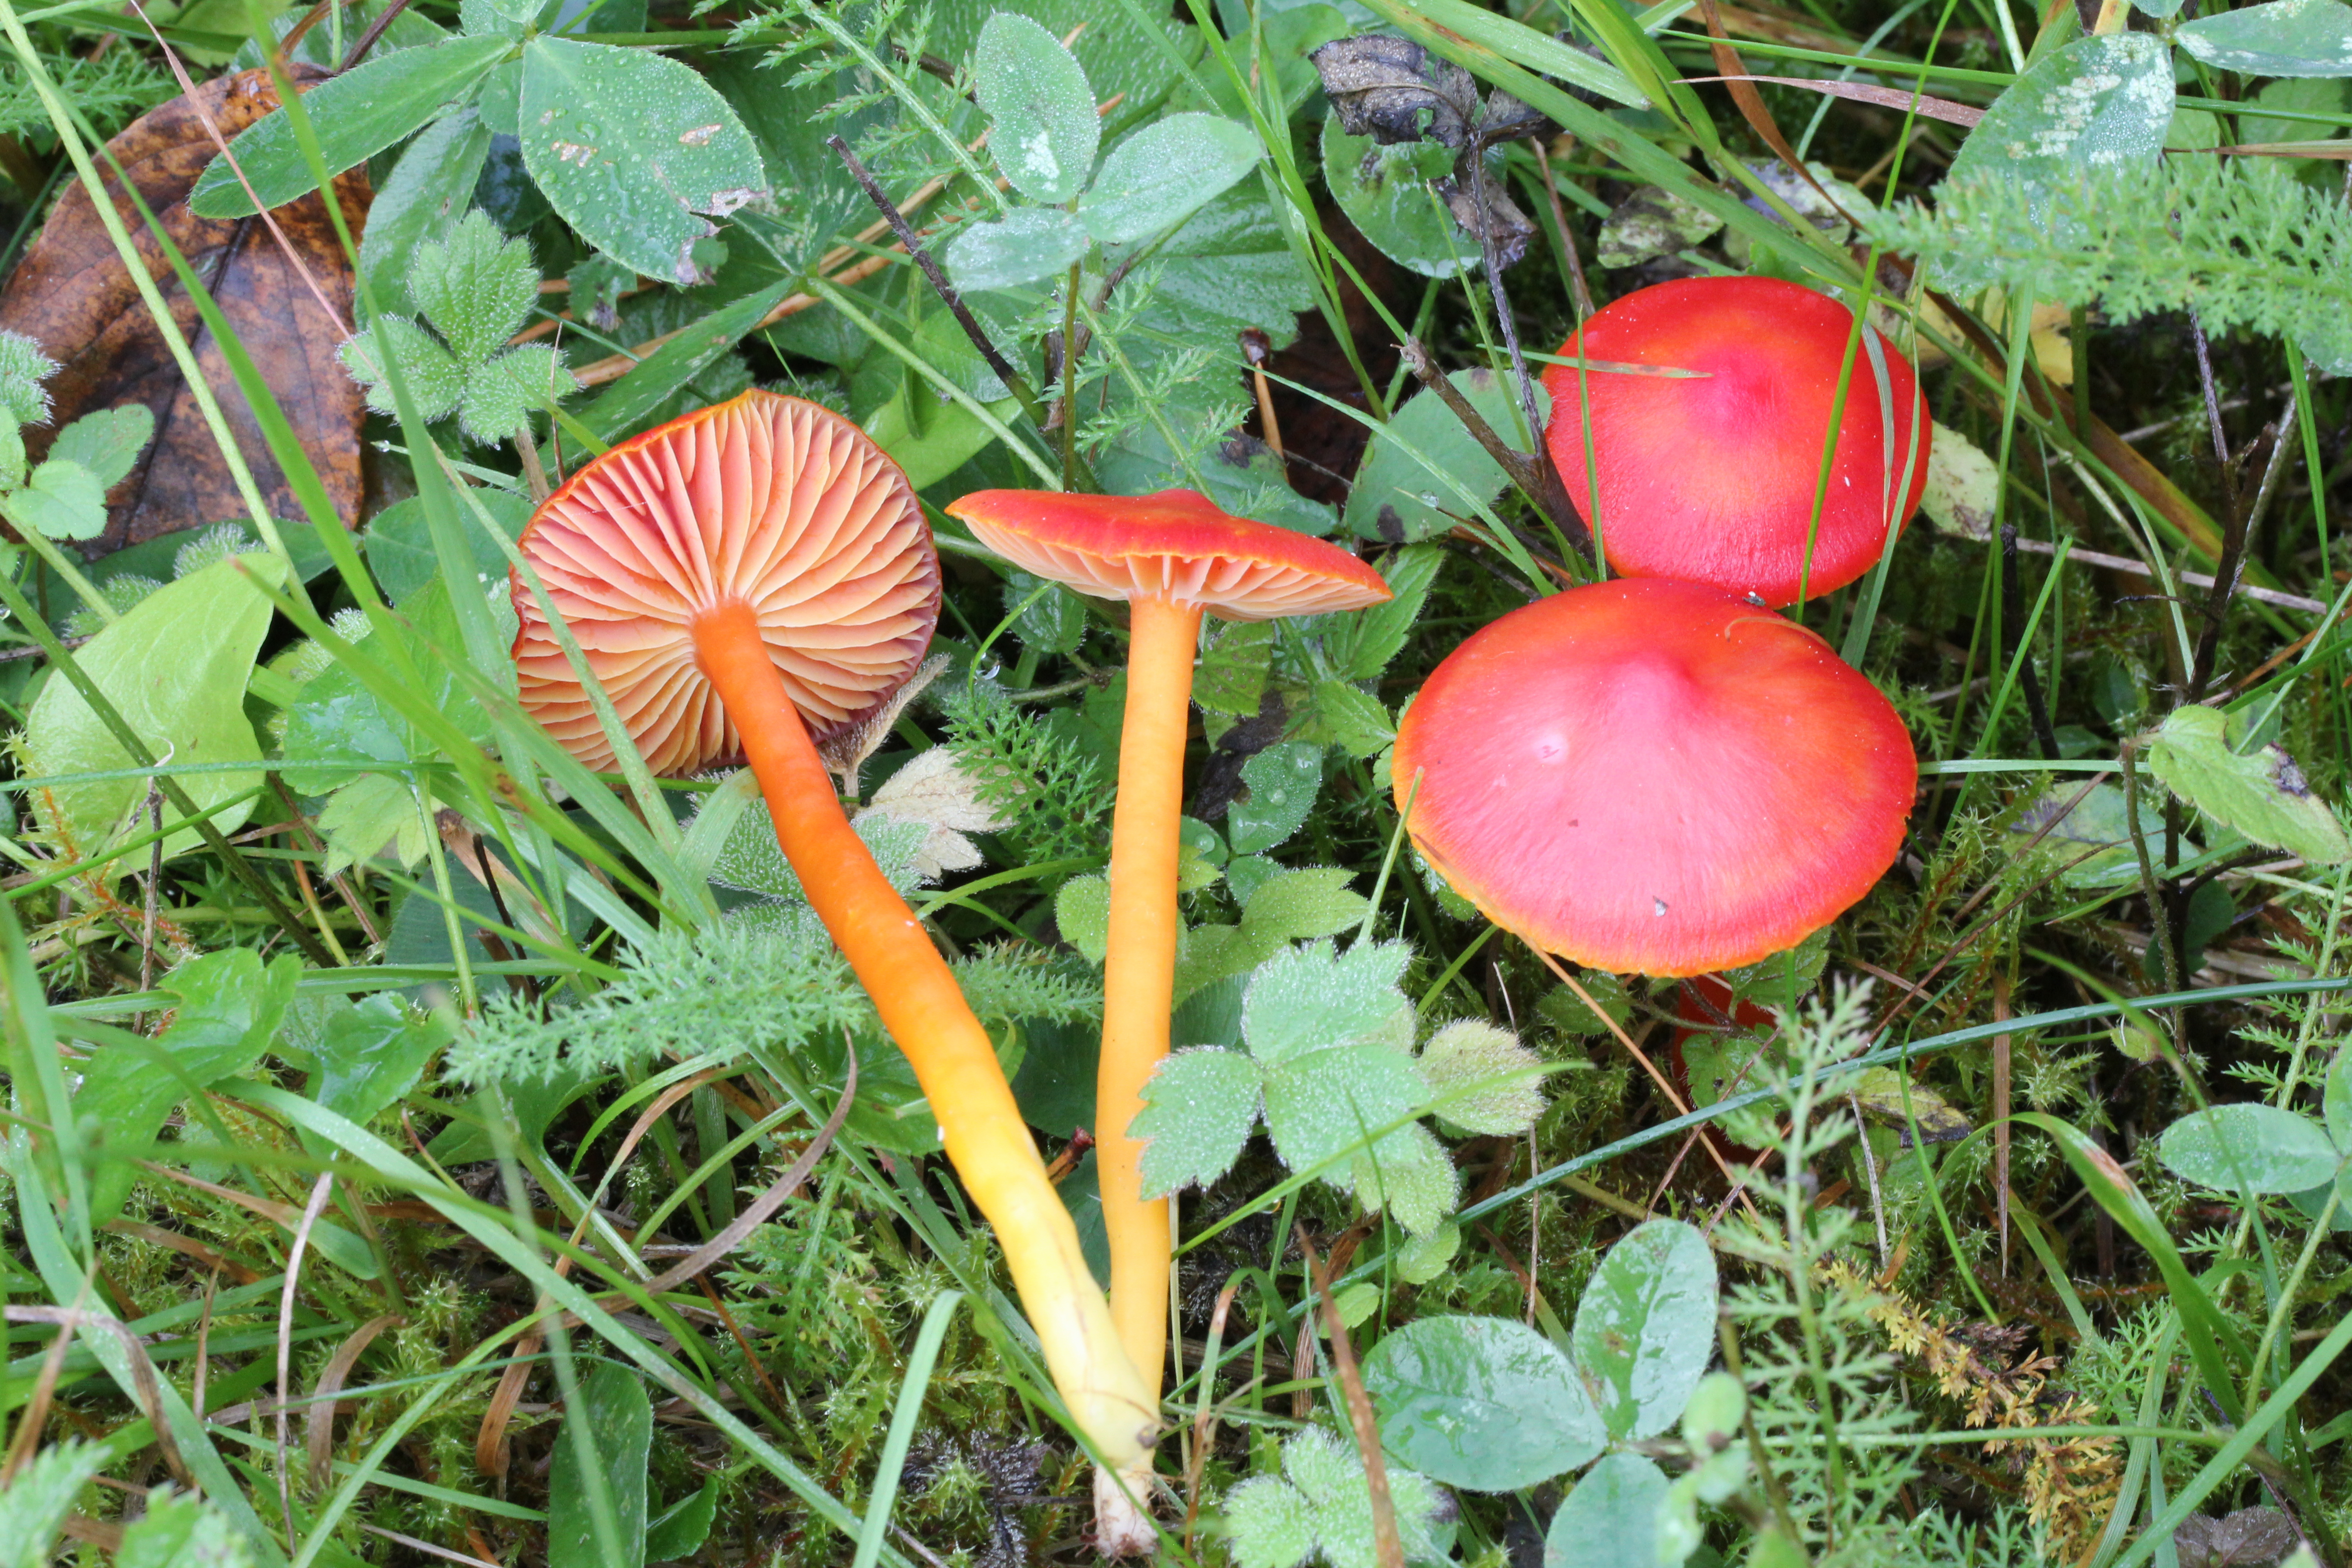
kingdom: Fungi
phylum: Basidiomycota
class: Agaricomycetes
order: Agaricales
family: Hygrophoraceae
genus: Hygrocybe
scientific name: Hygrocybe coccinea
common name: Scarlet hood
